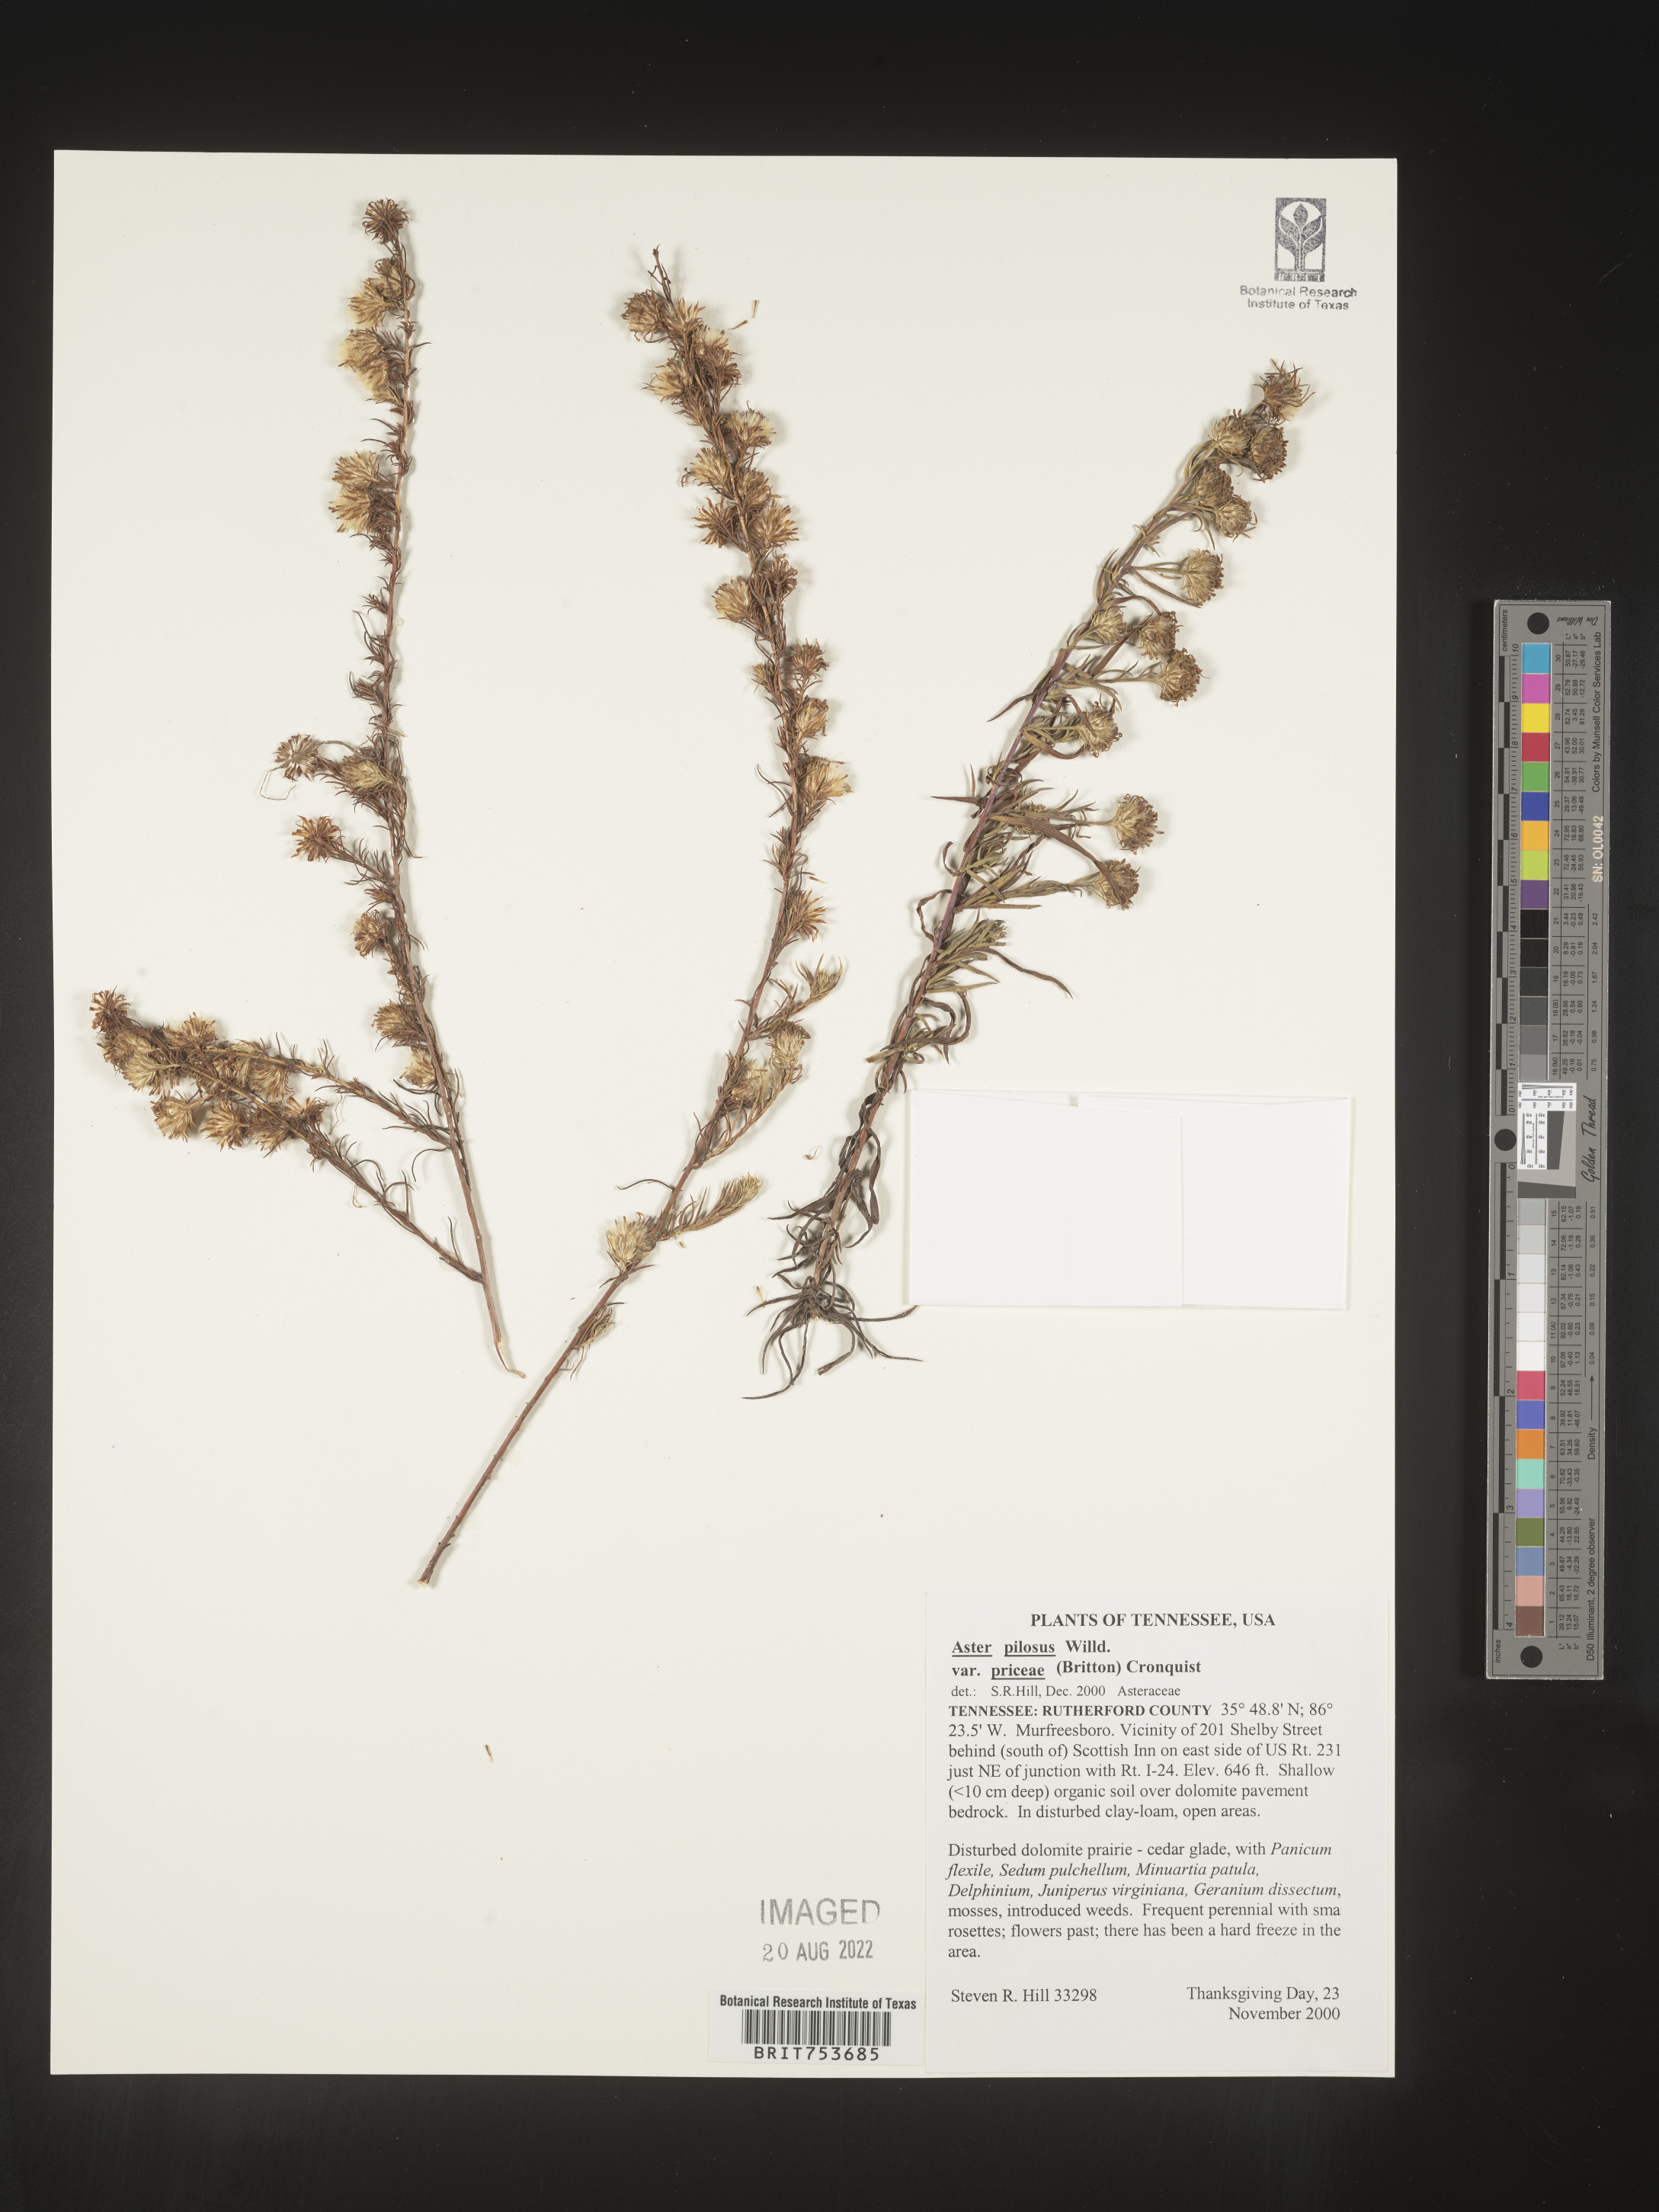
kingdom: Plantae
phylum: Tracheophyta
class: Magnoliopsida
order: Asterales
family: Asteraceae
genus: Symphyotrichum
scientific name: Symphyotrichum pilosum
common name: Awl aster
